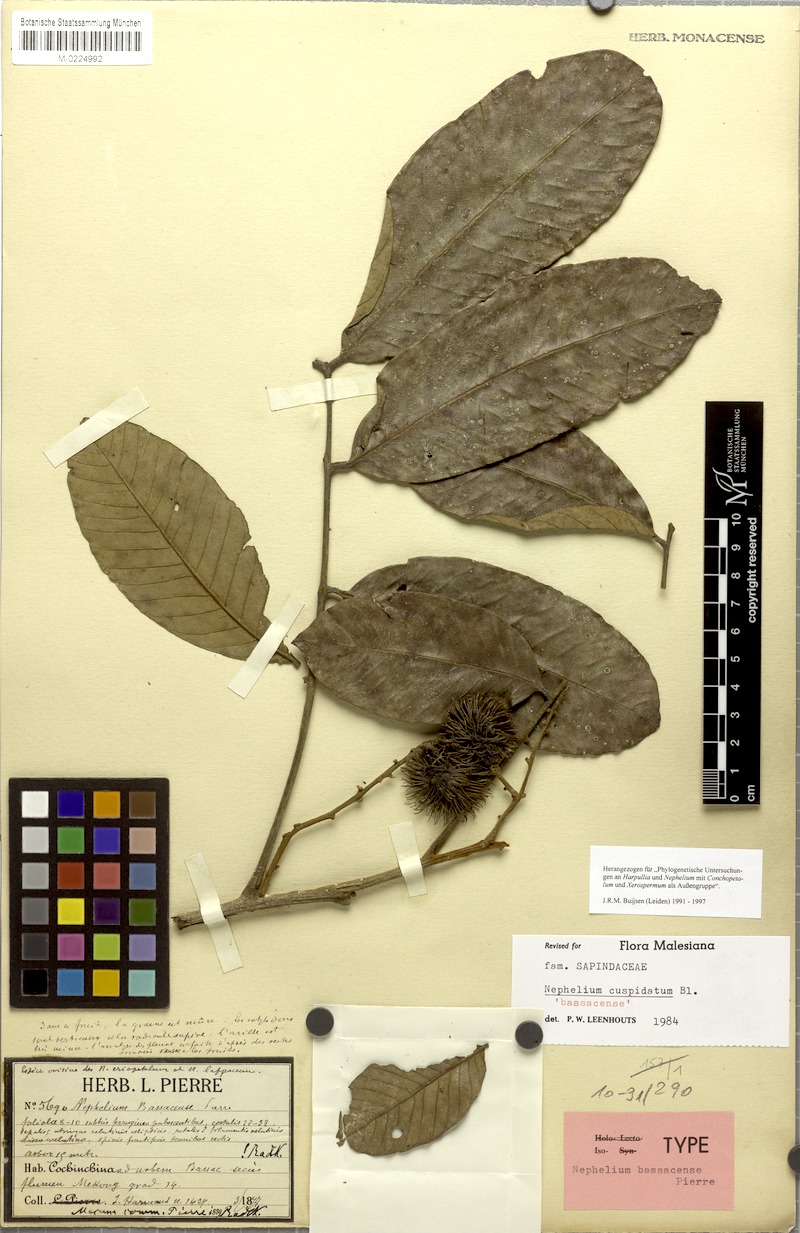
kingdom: Plantae
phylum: Tracheophyta
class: Magnoliopsida
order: Sapindales
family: Sapindaceae
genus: Nephelium
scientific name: Nephelium cuspidatum
